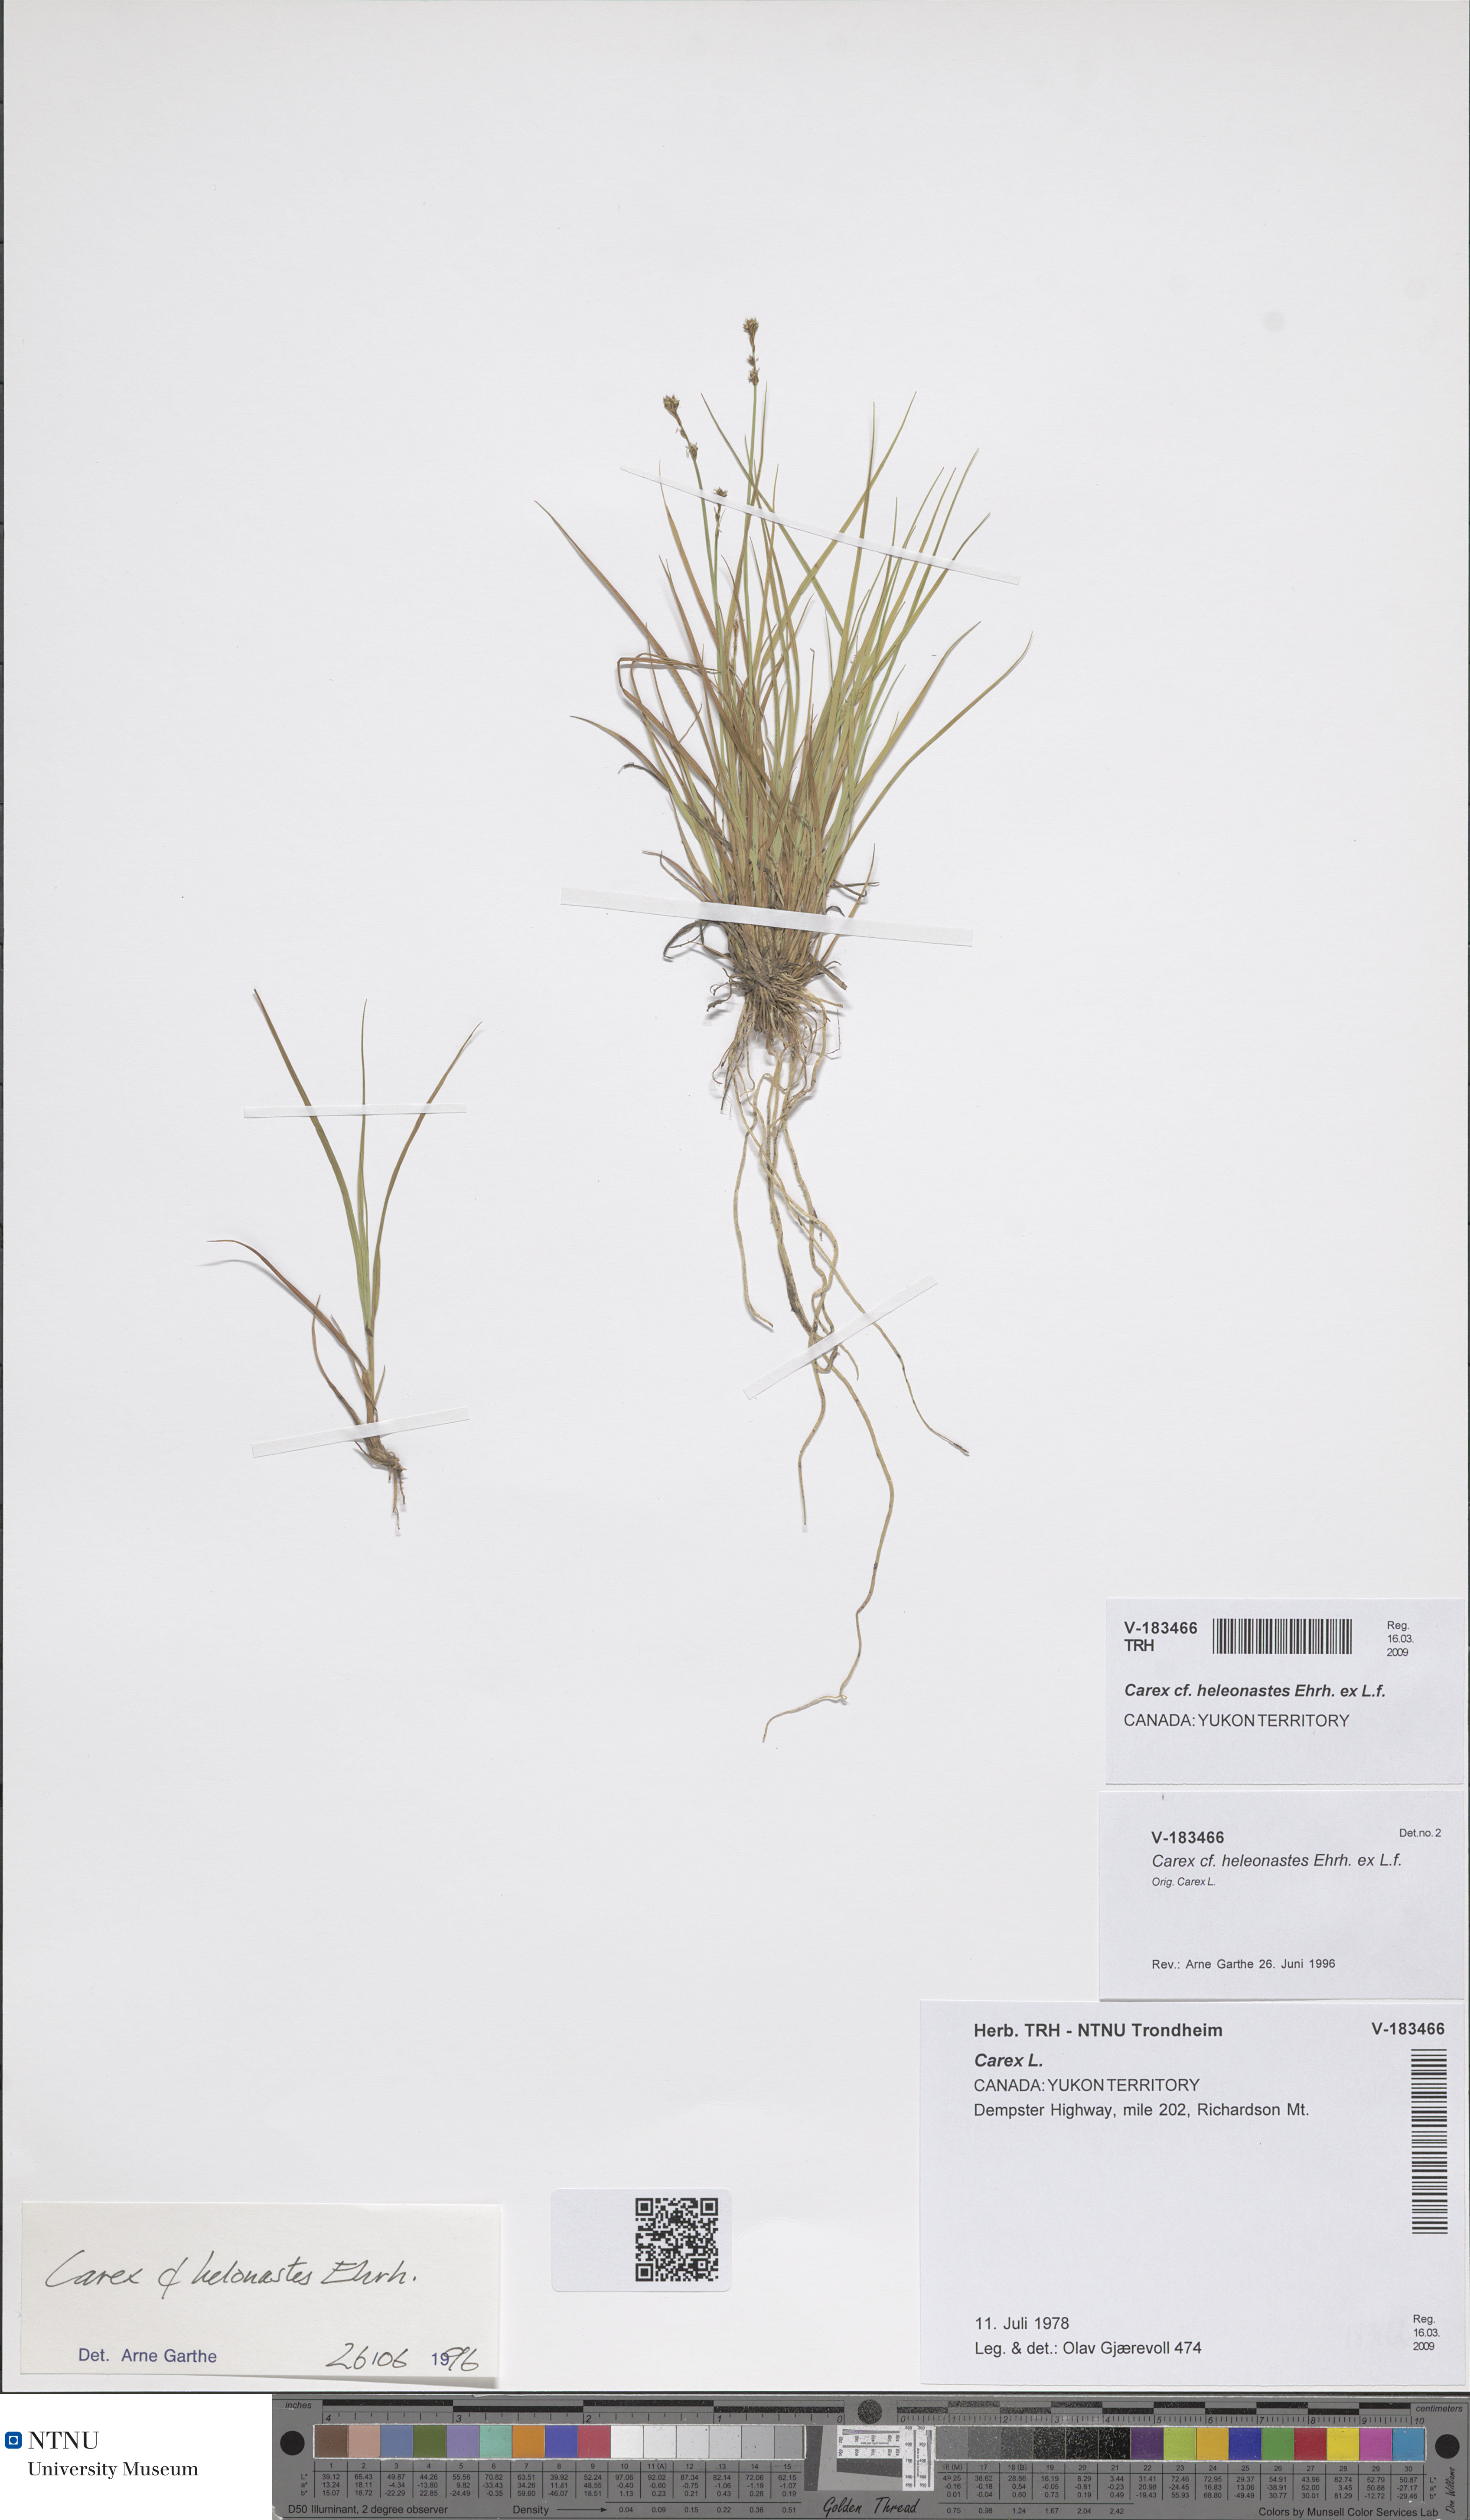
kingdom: Plantae
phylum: Tracheophyta
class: Liliopsida
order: Poales
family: Cyperaceae
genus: Carex
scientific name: Carex heleonastes
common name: Hudson bay sedge
